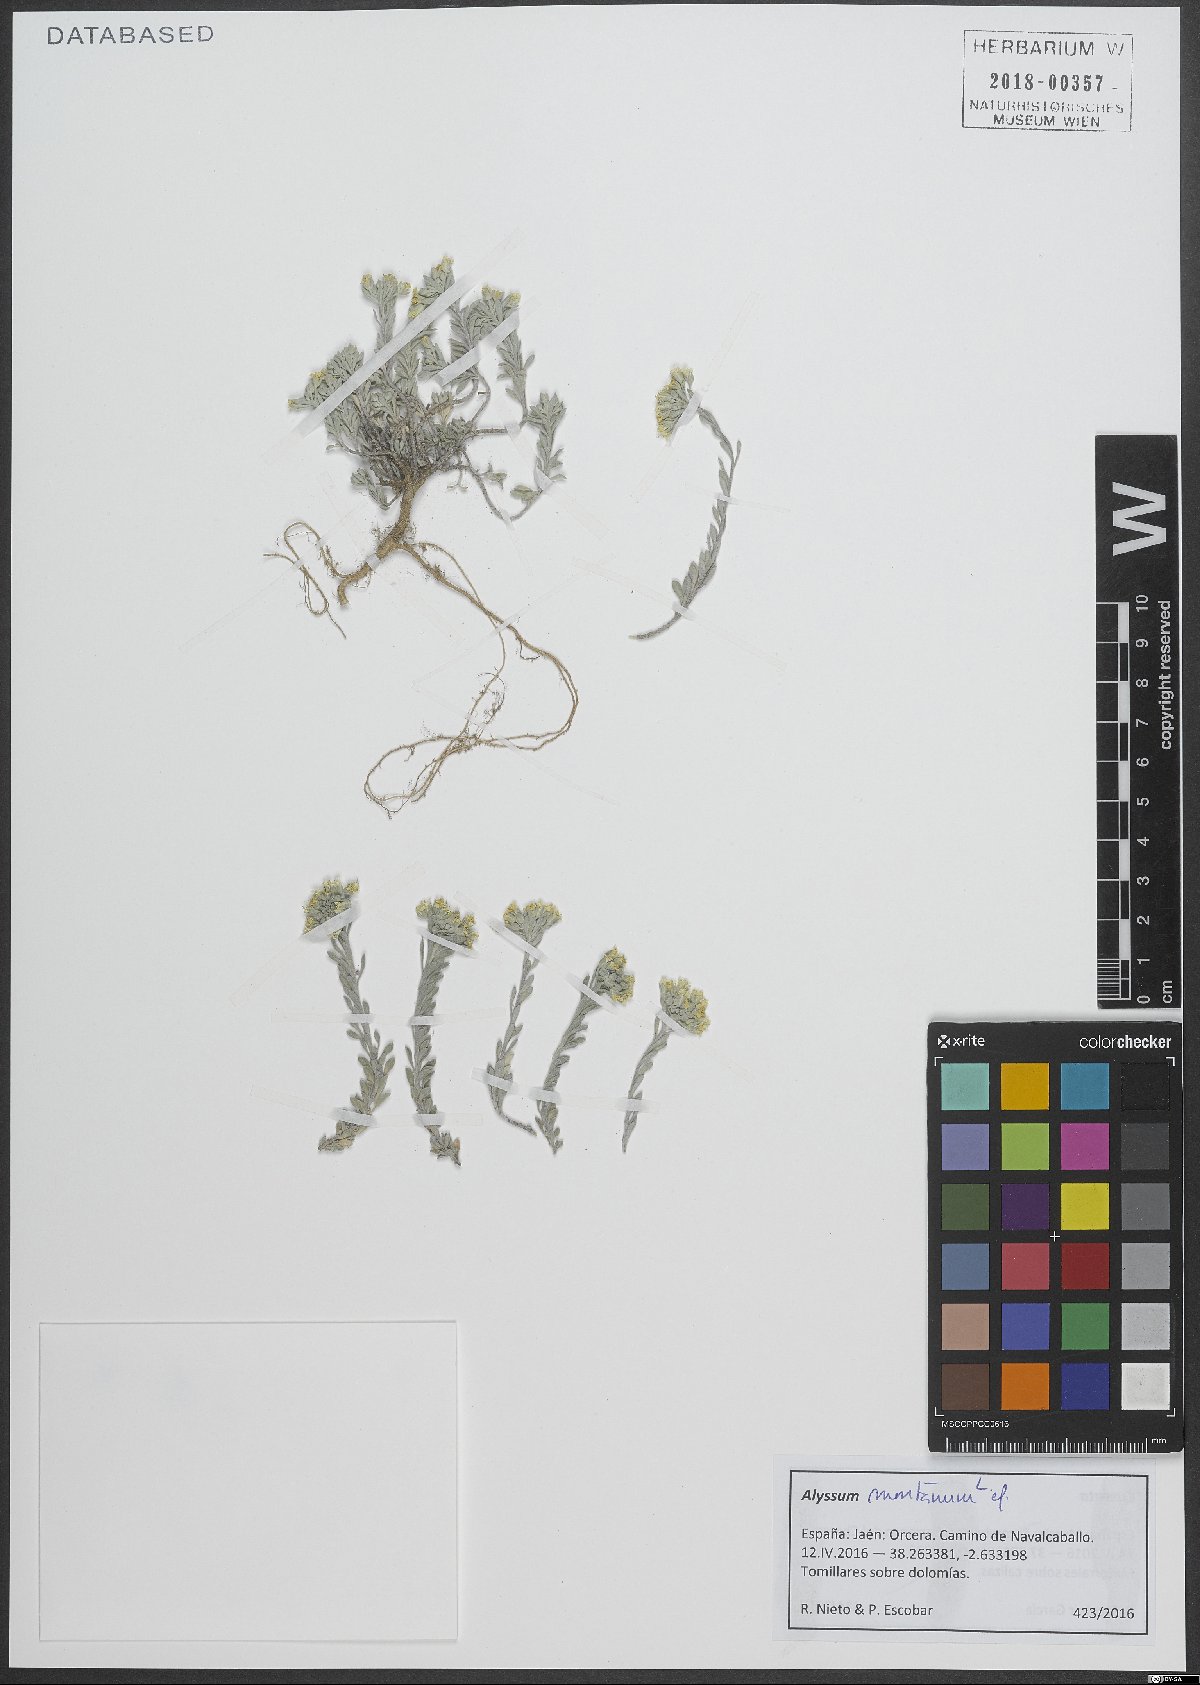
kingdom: Plantae
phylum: Tracheophyta
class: Magnoliopsida
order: Brassicales
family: Brassicaceae
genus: Alyssum
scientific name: Alyssum montanum
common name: Mountain alison
